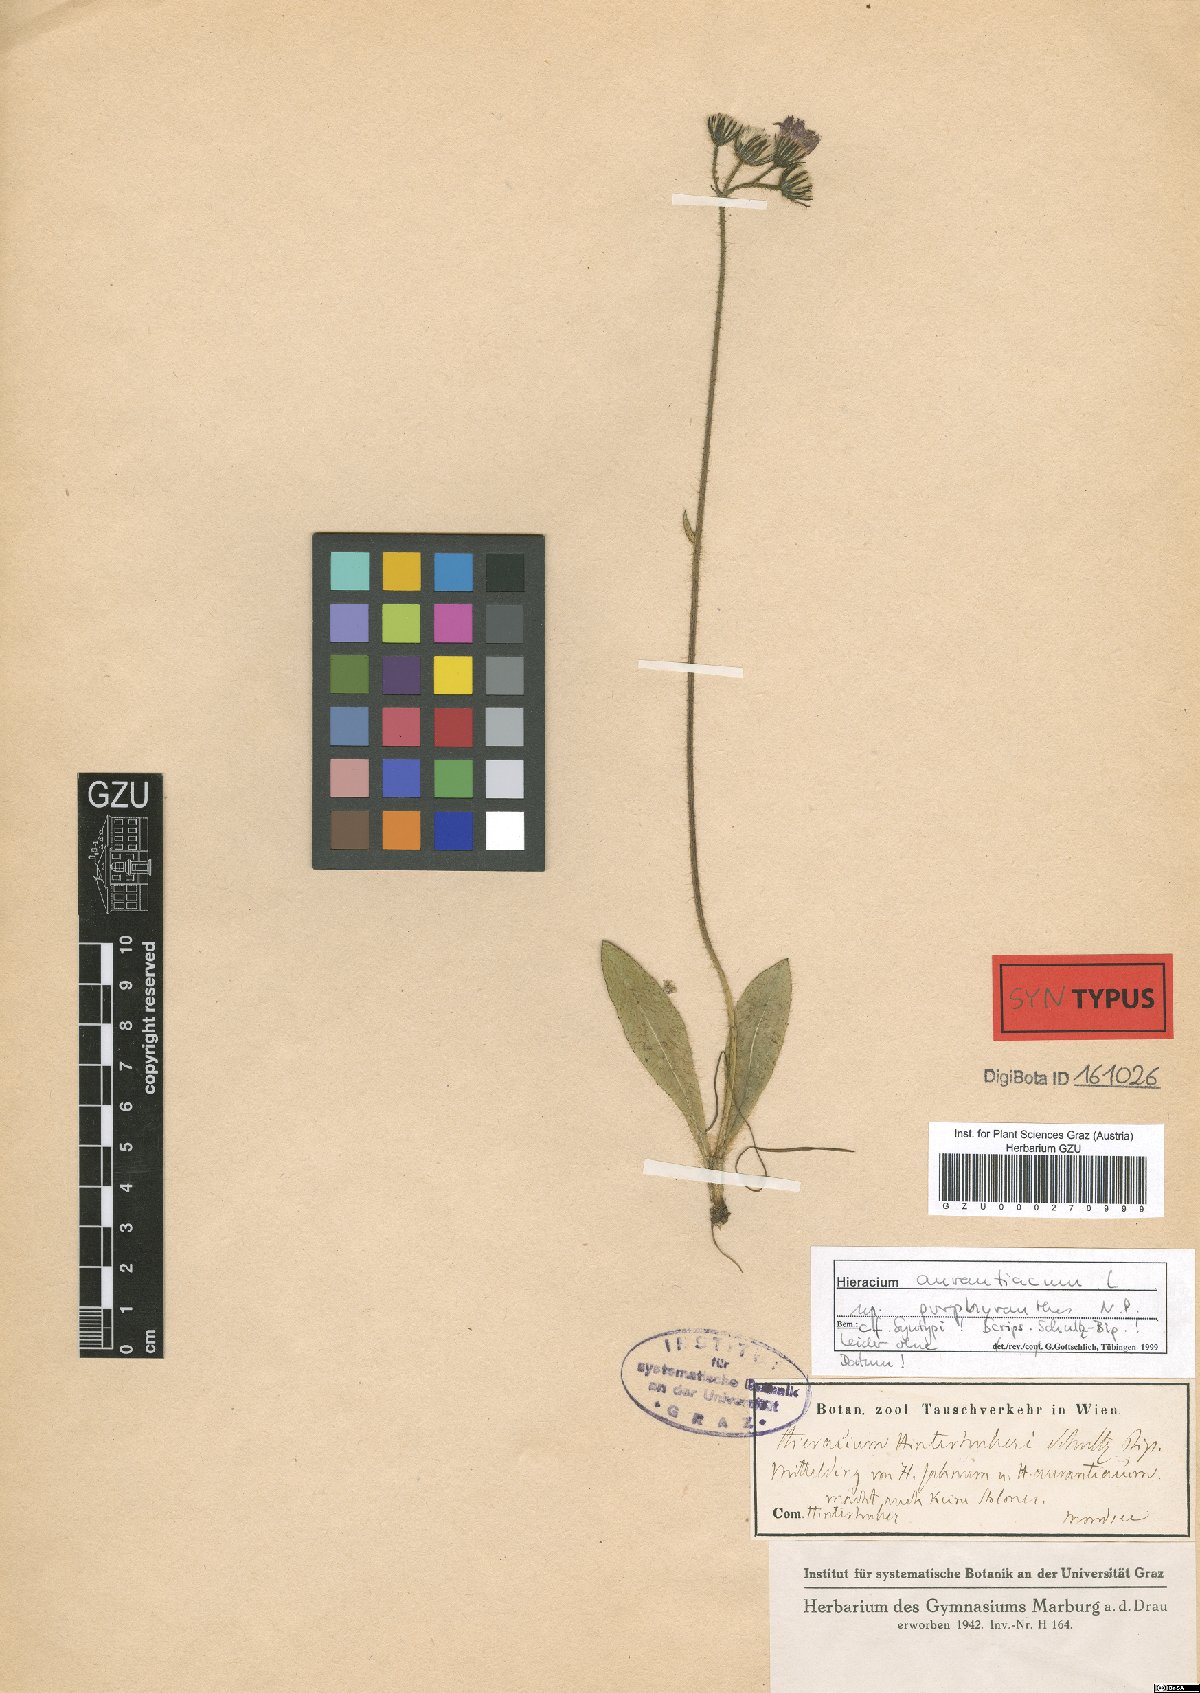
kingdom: Plantae
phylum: Tracheophyta
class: Magnoliopsida
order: Asterales
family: Asteraceae
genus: Pilosella
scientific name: Pilosella aurantiaca
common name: Fox-and-cubs
